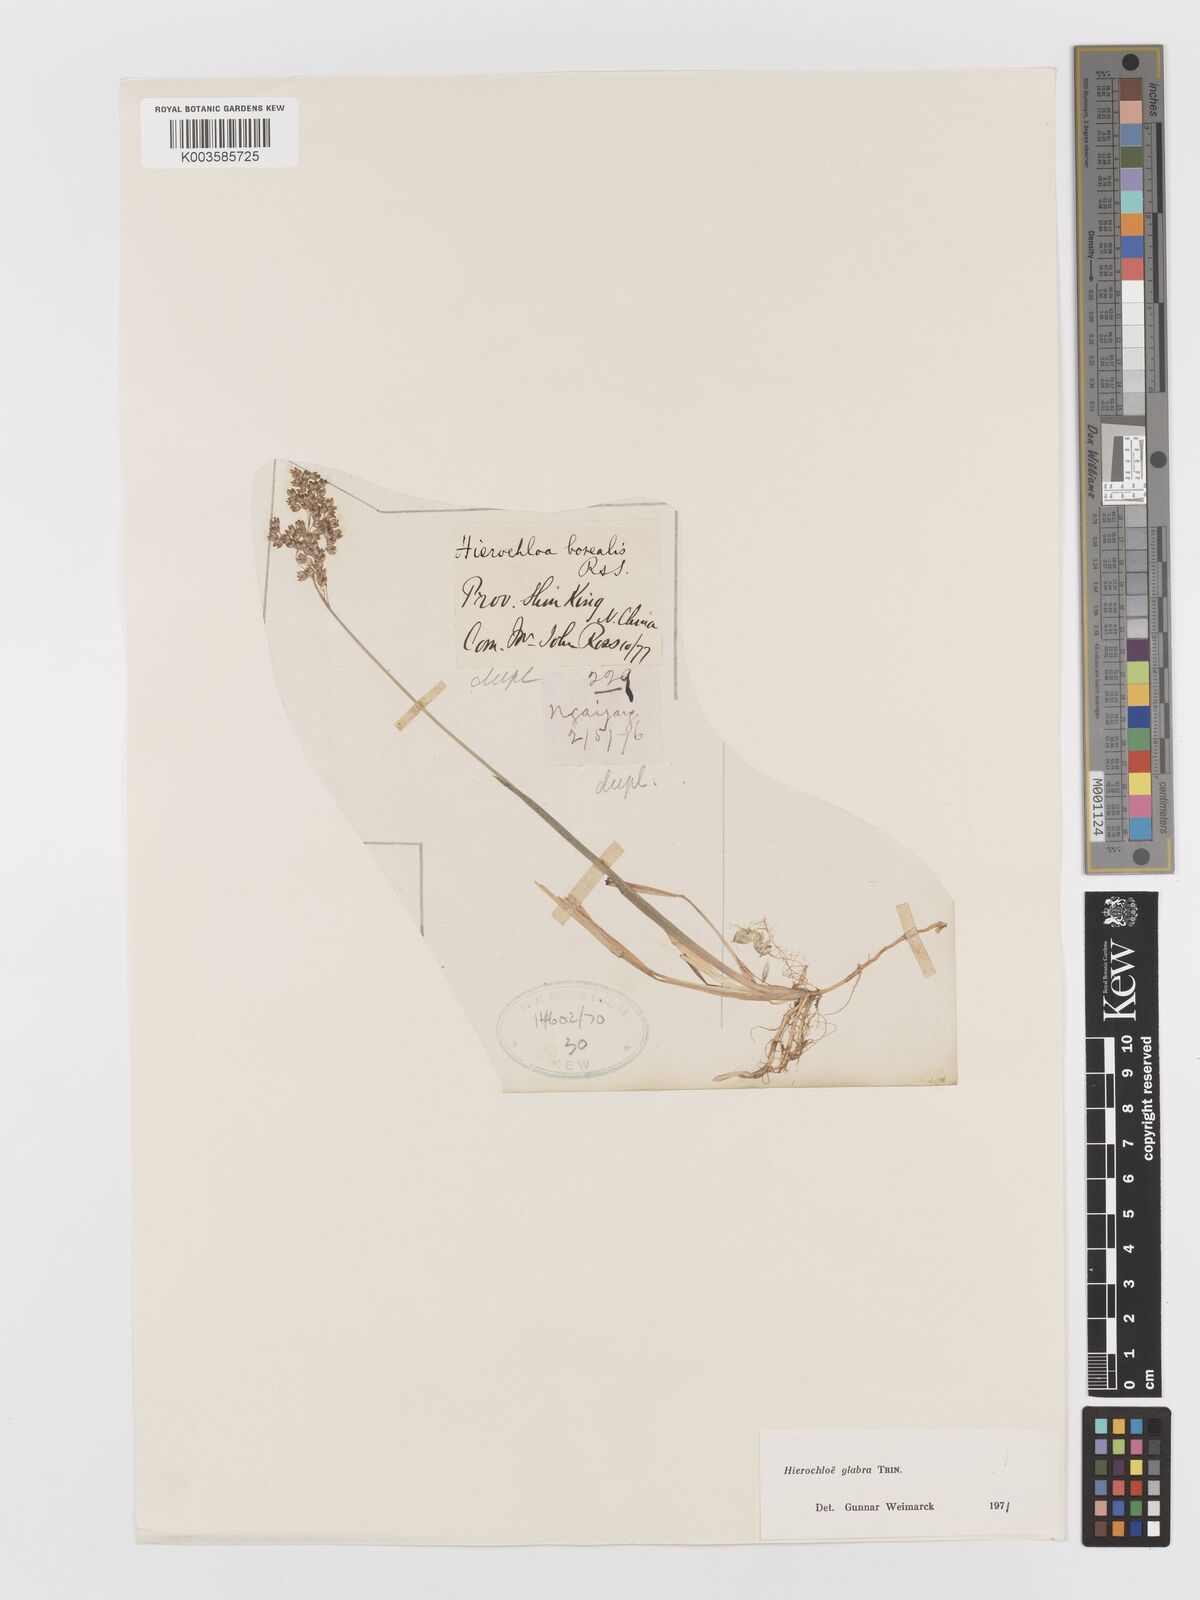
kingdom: Plantae
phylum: Tracheophyta
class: Liliopsida
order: Poales
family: Poaceae
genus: Anthoxanthum
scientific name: Anthoxanthum glabrum
